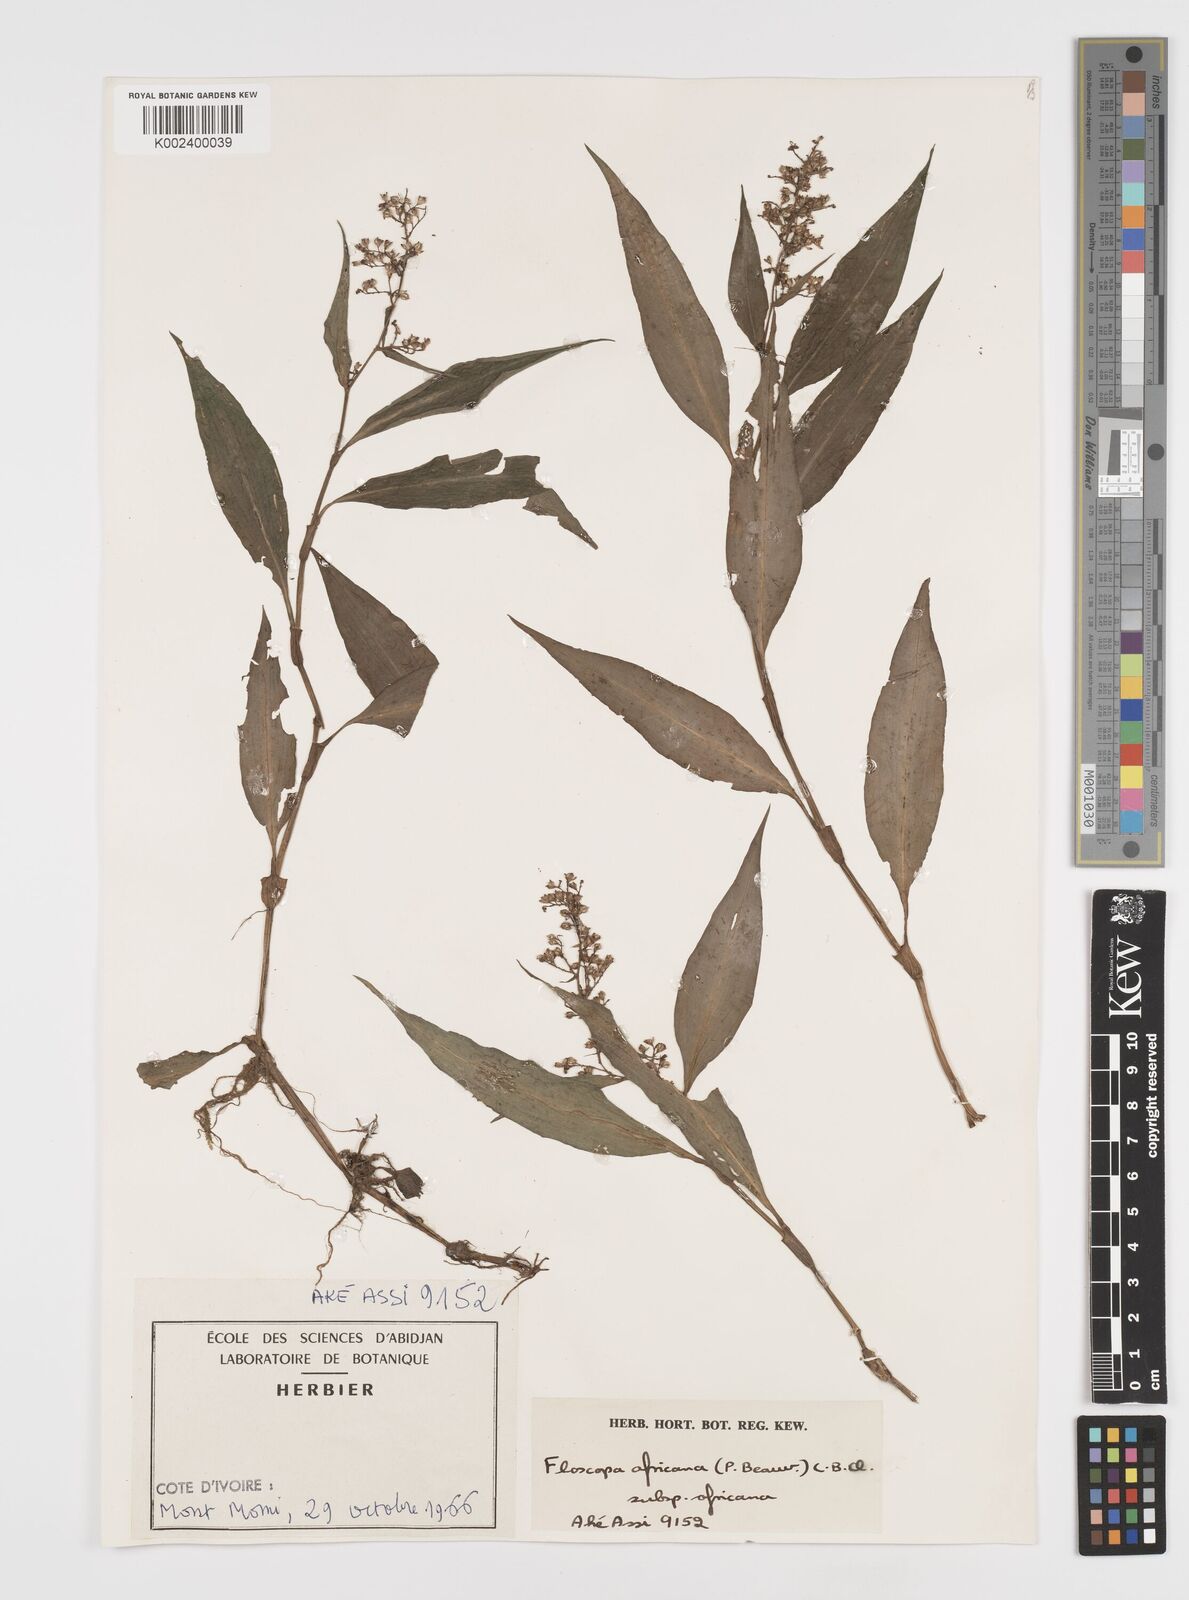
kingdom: Plantae
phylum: Tracheophyta
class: Liliopsida
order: Commelinales
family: Commelinaceae
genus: Floscopa
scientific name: Floscopa africana
